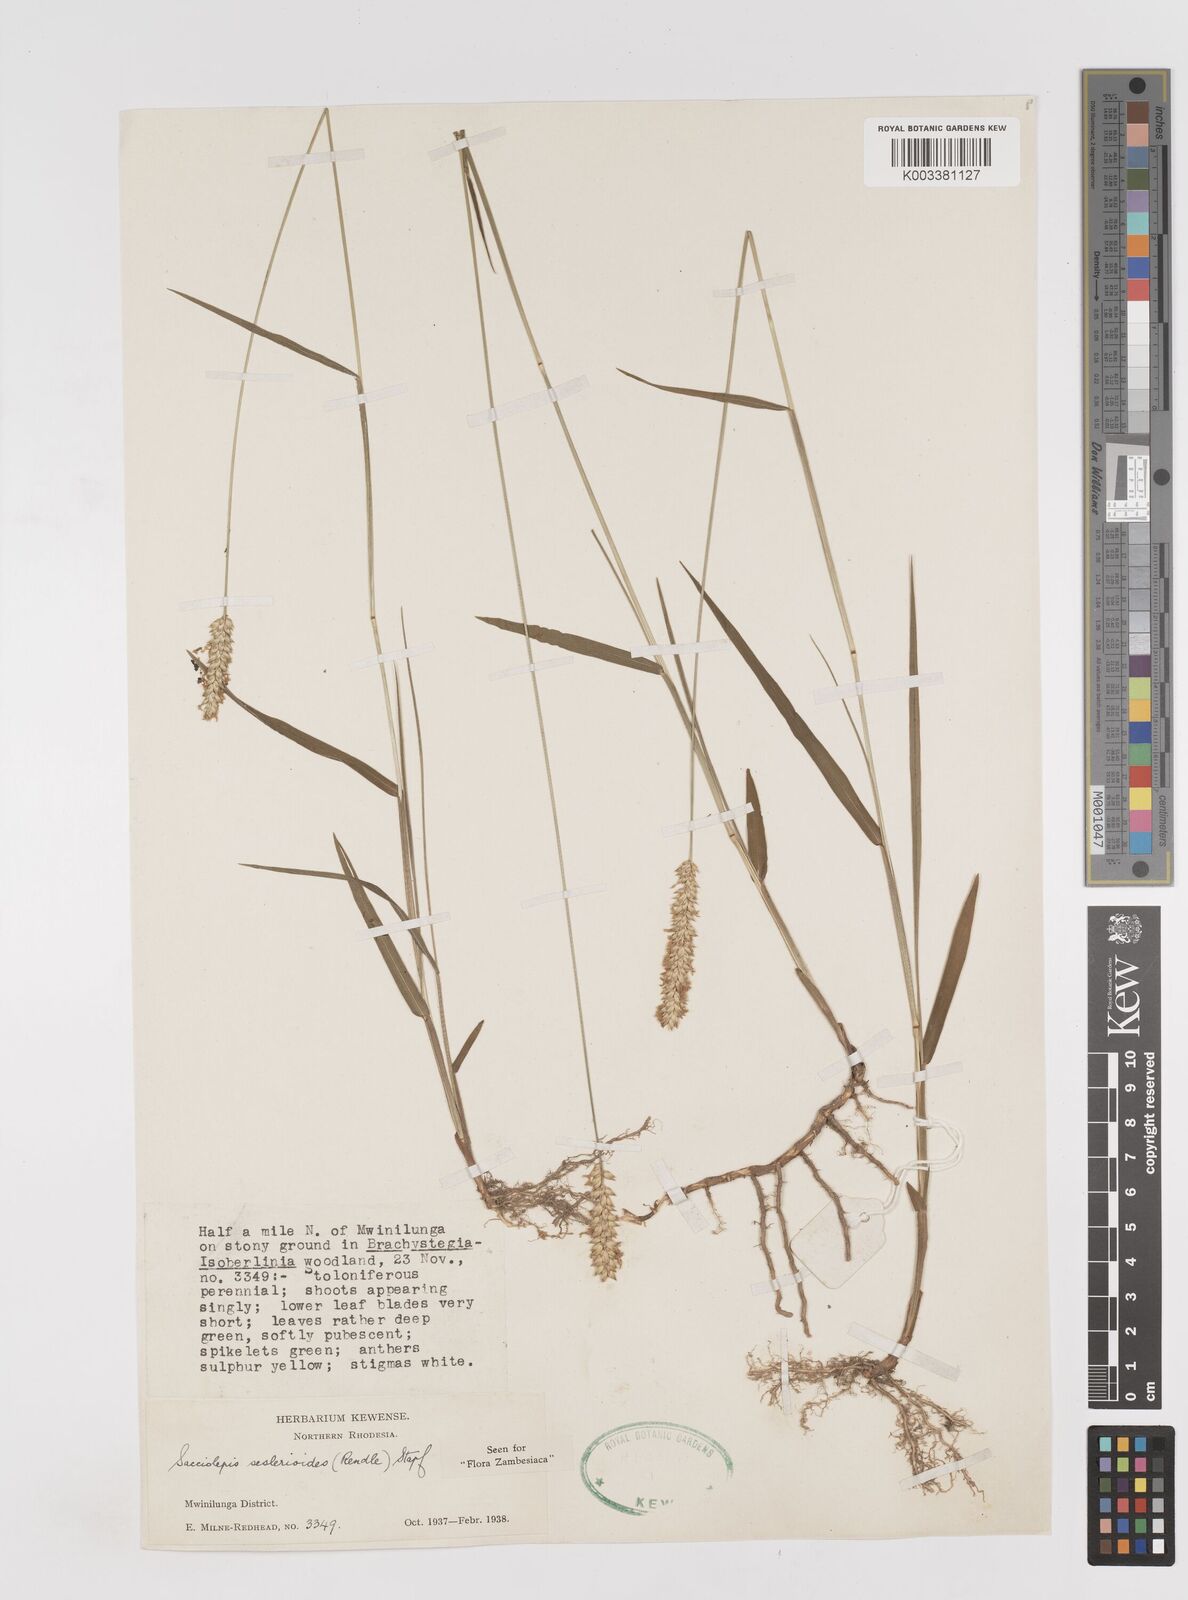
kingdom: Plantae
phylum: Tracheophyta
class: Liliopsida
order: Poales
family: Poaceae
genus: Sacciolepis
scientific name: Sacciolepis seslerioides
